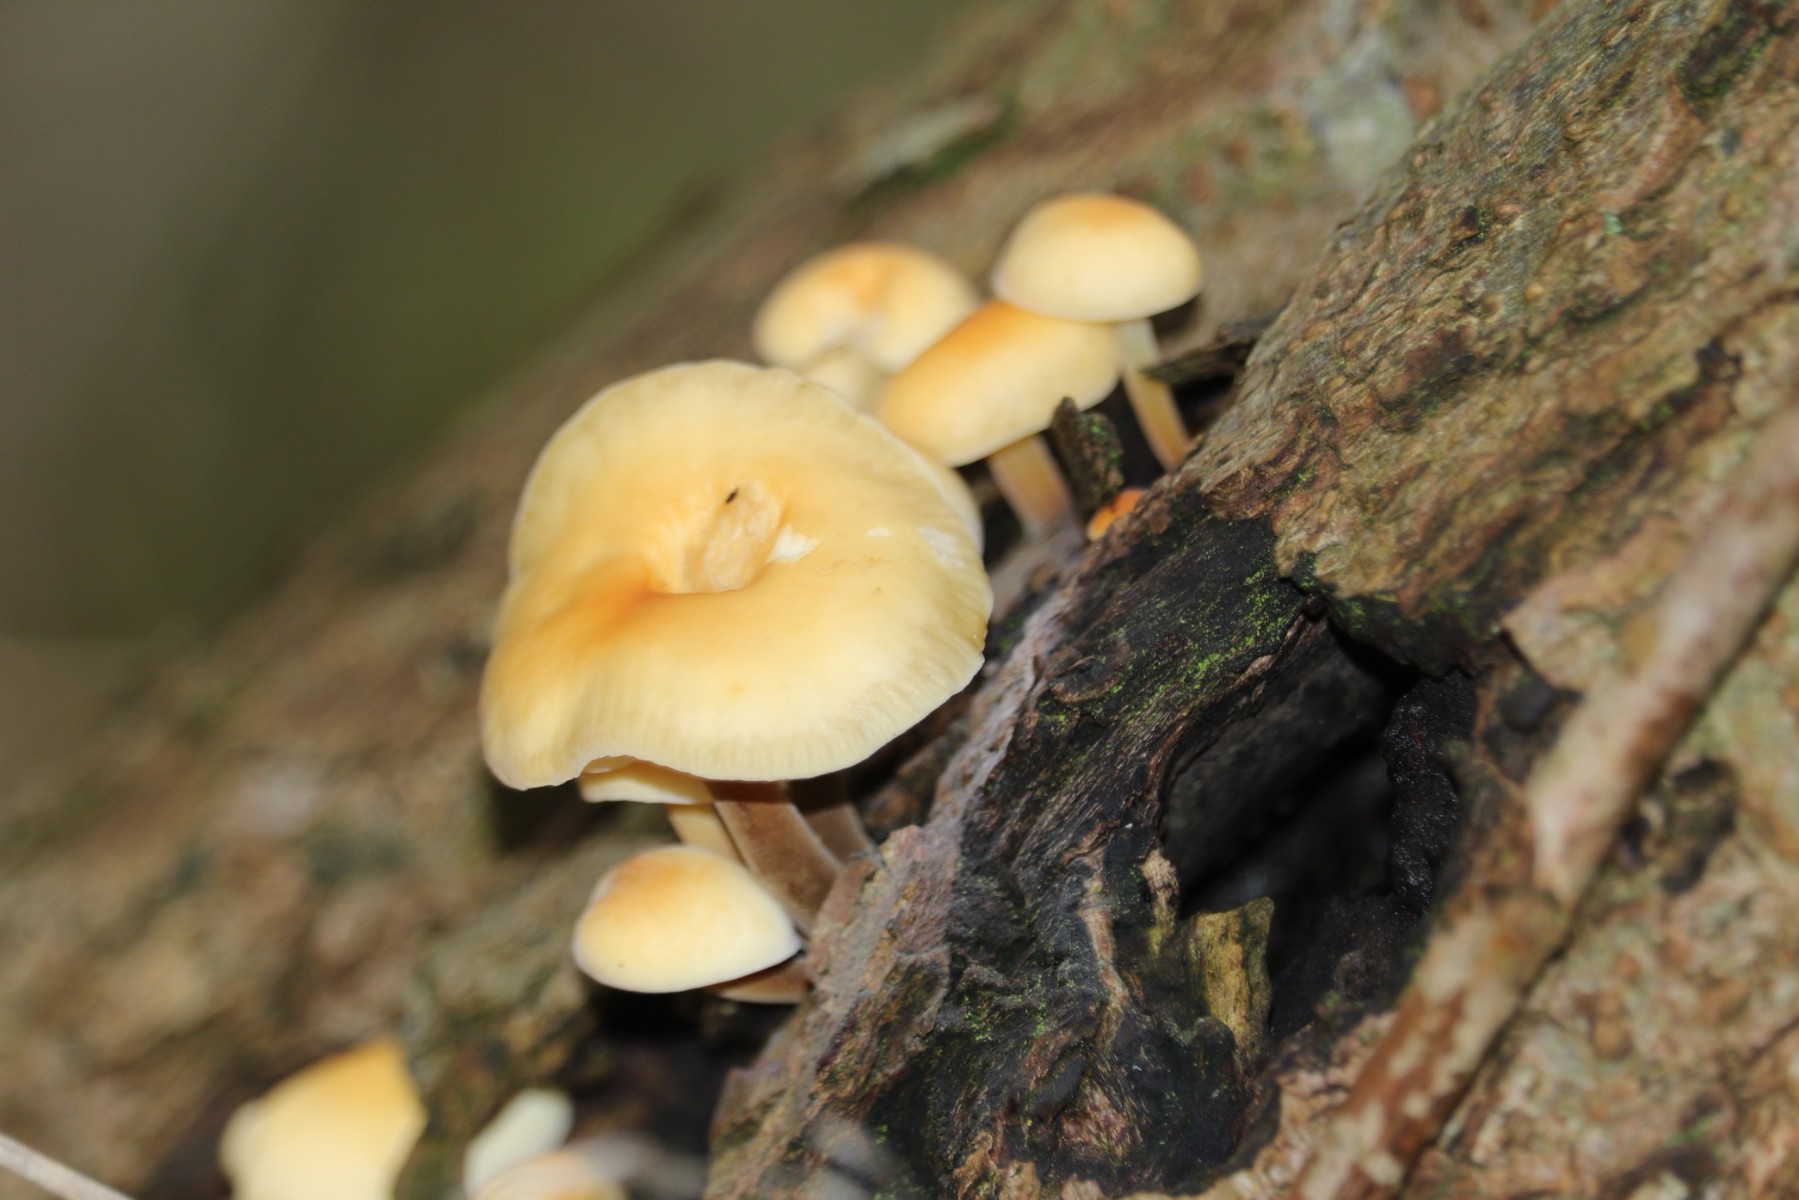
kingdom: Fungi
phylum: Basidiomycota
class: Agaricomycetes
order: Agaricales
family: Physalacriaceae
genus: Flammulina
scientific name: Flammulina
